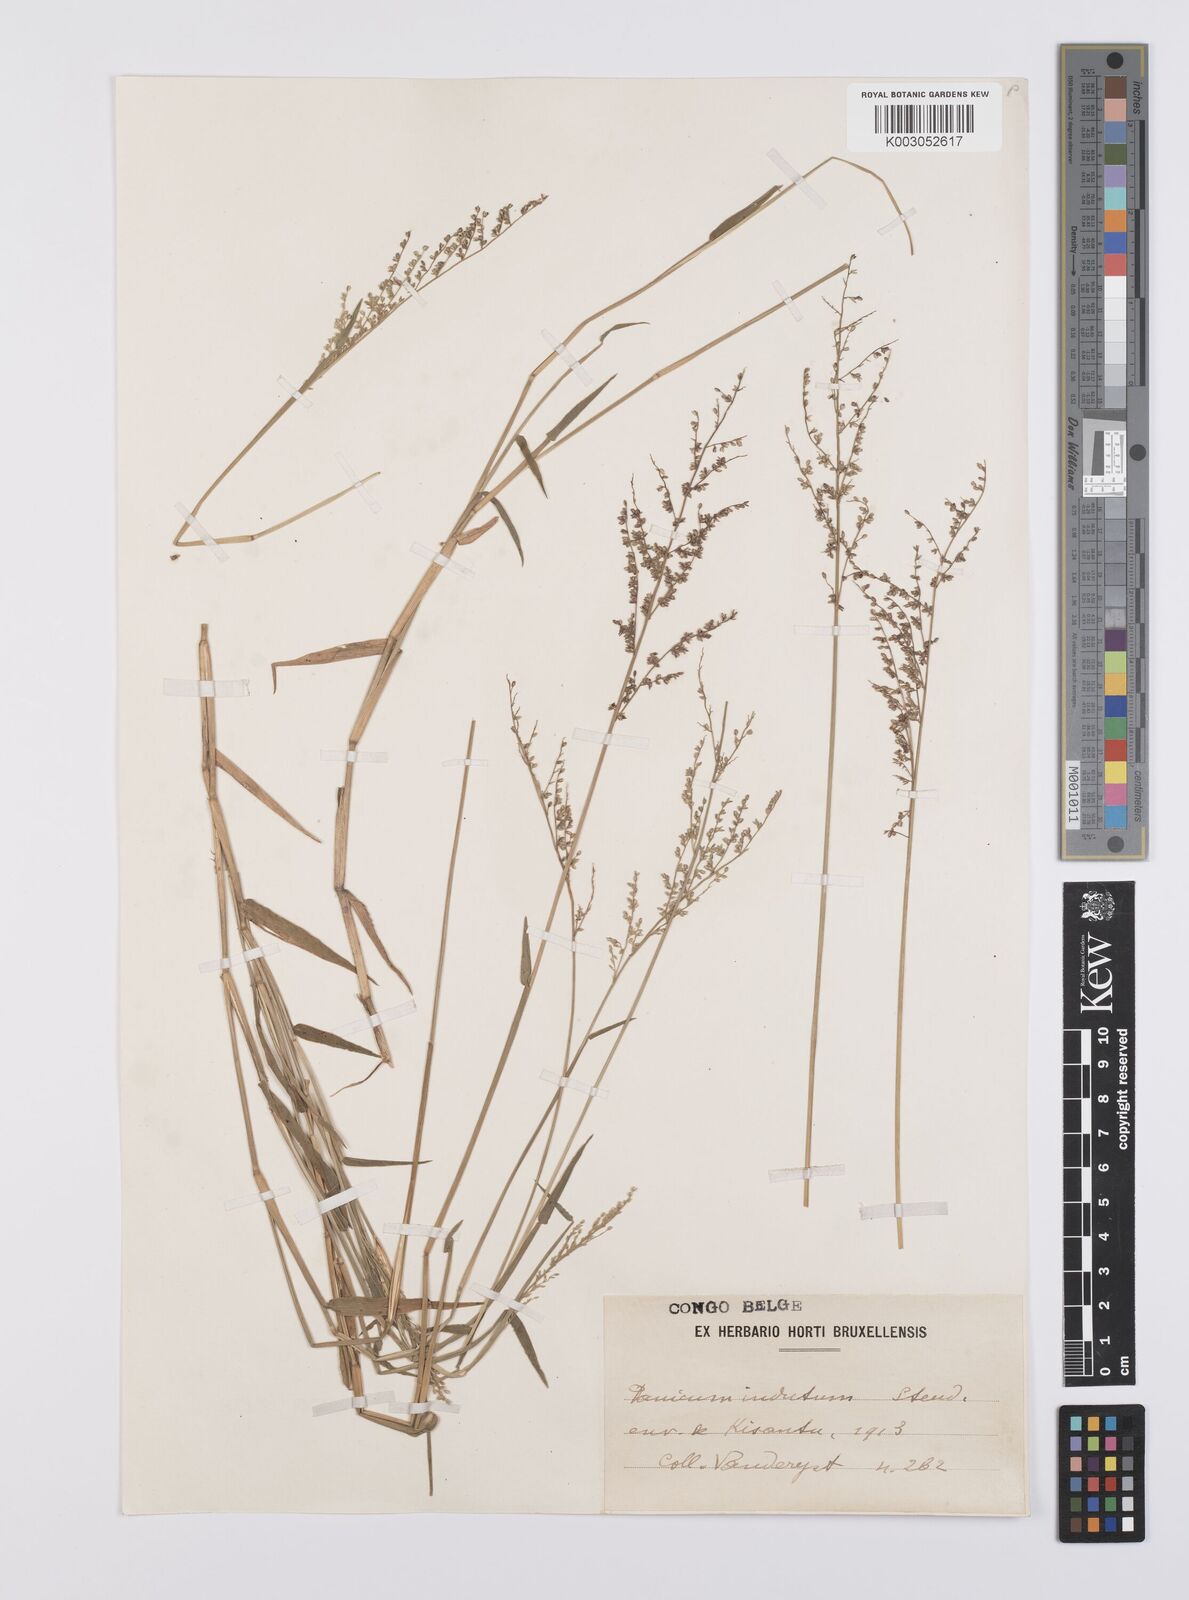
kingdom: Plantae
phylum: Tracheophyta
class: Liliopsida
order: Poales
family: Poaceae
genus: Urochloa
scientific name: Urochloa comata
